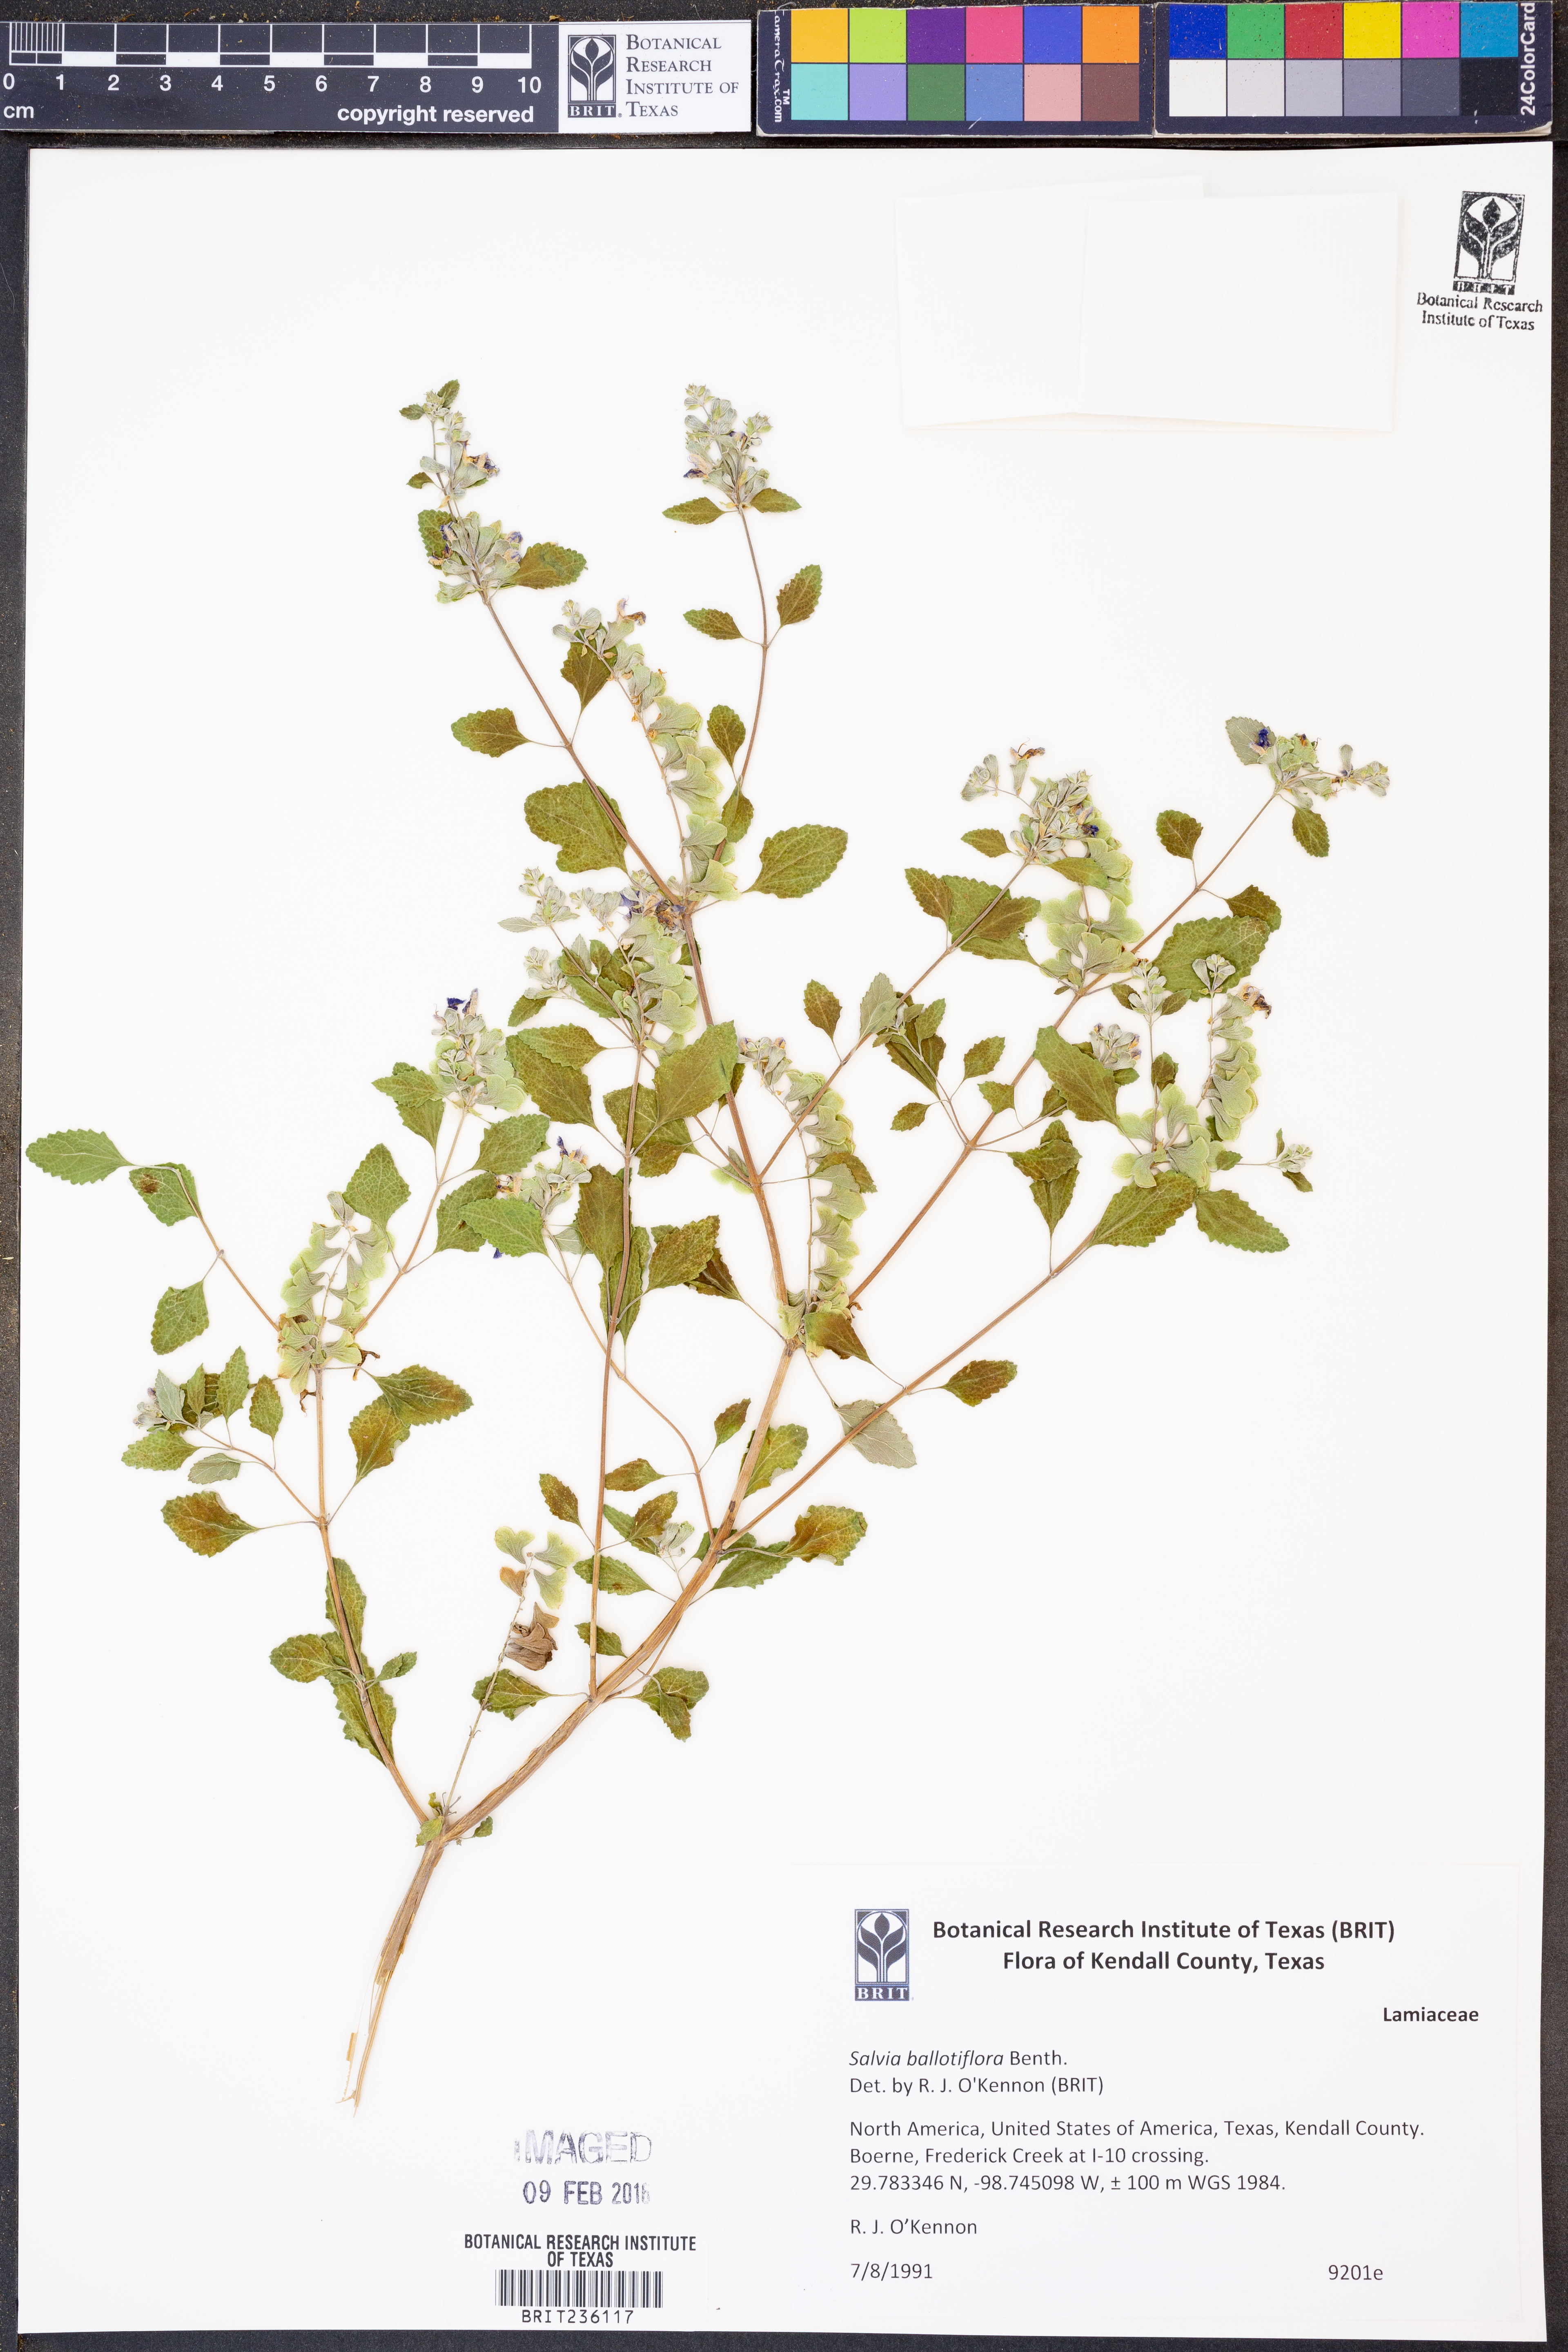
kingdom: Plantae
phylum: Tracheophyta
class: Magnoliopsida
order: Lamiales
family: Lamiaceae
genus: Salvia
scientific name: Salvia ballotiflora
